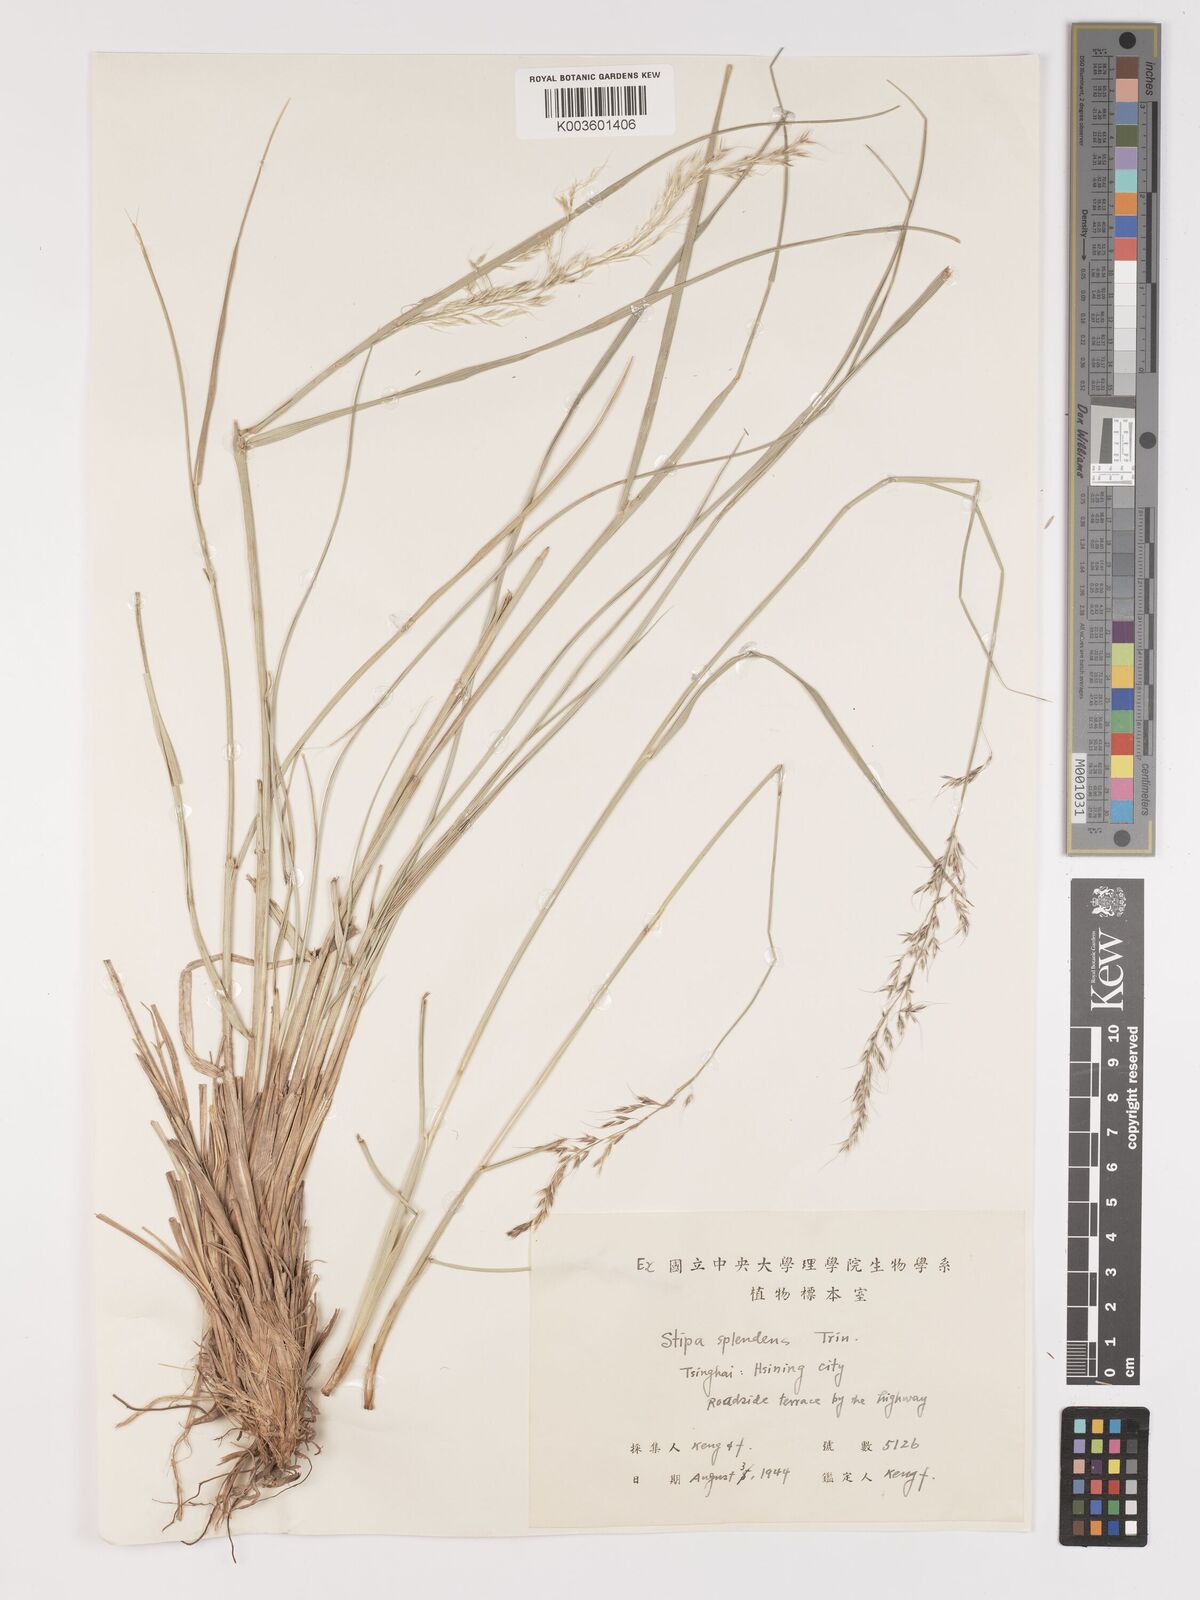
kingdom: Plantae
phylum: Tracheophyta
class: Liliopsida
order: Poales
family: Poaceae
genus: Neotrinia
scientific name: Neotrinia splendens
